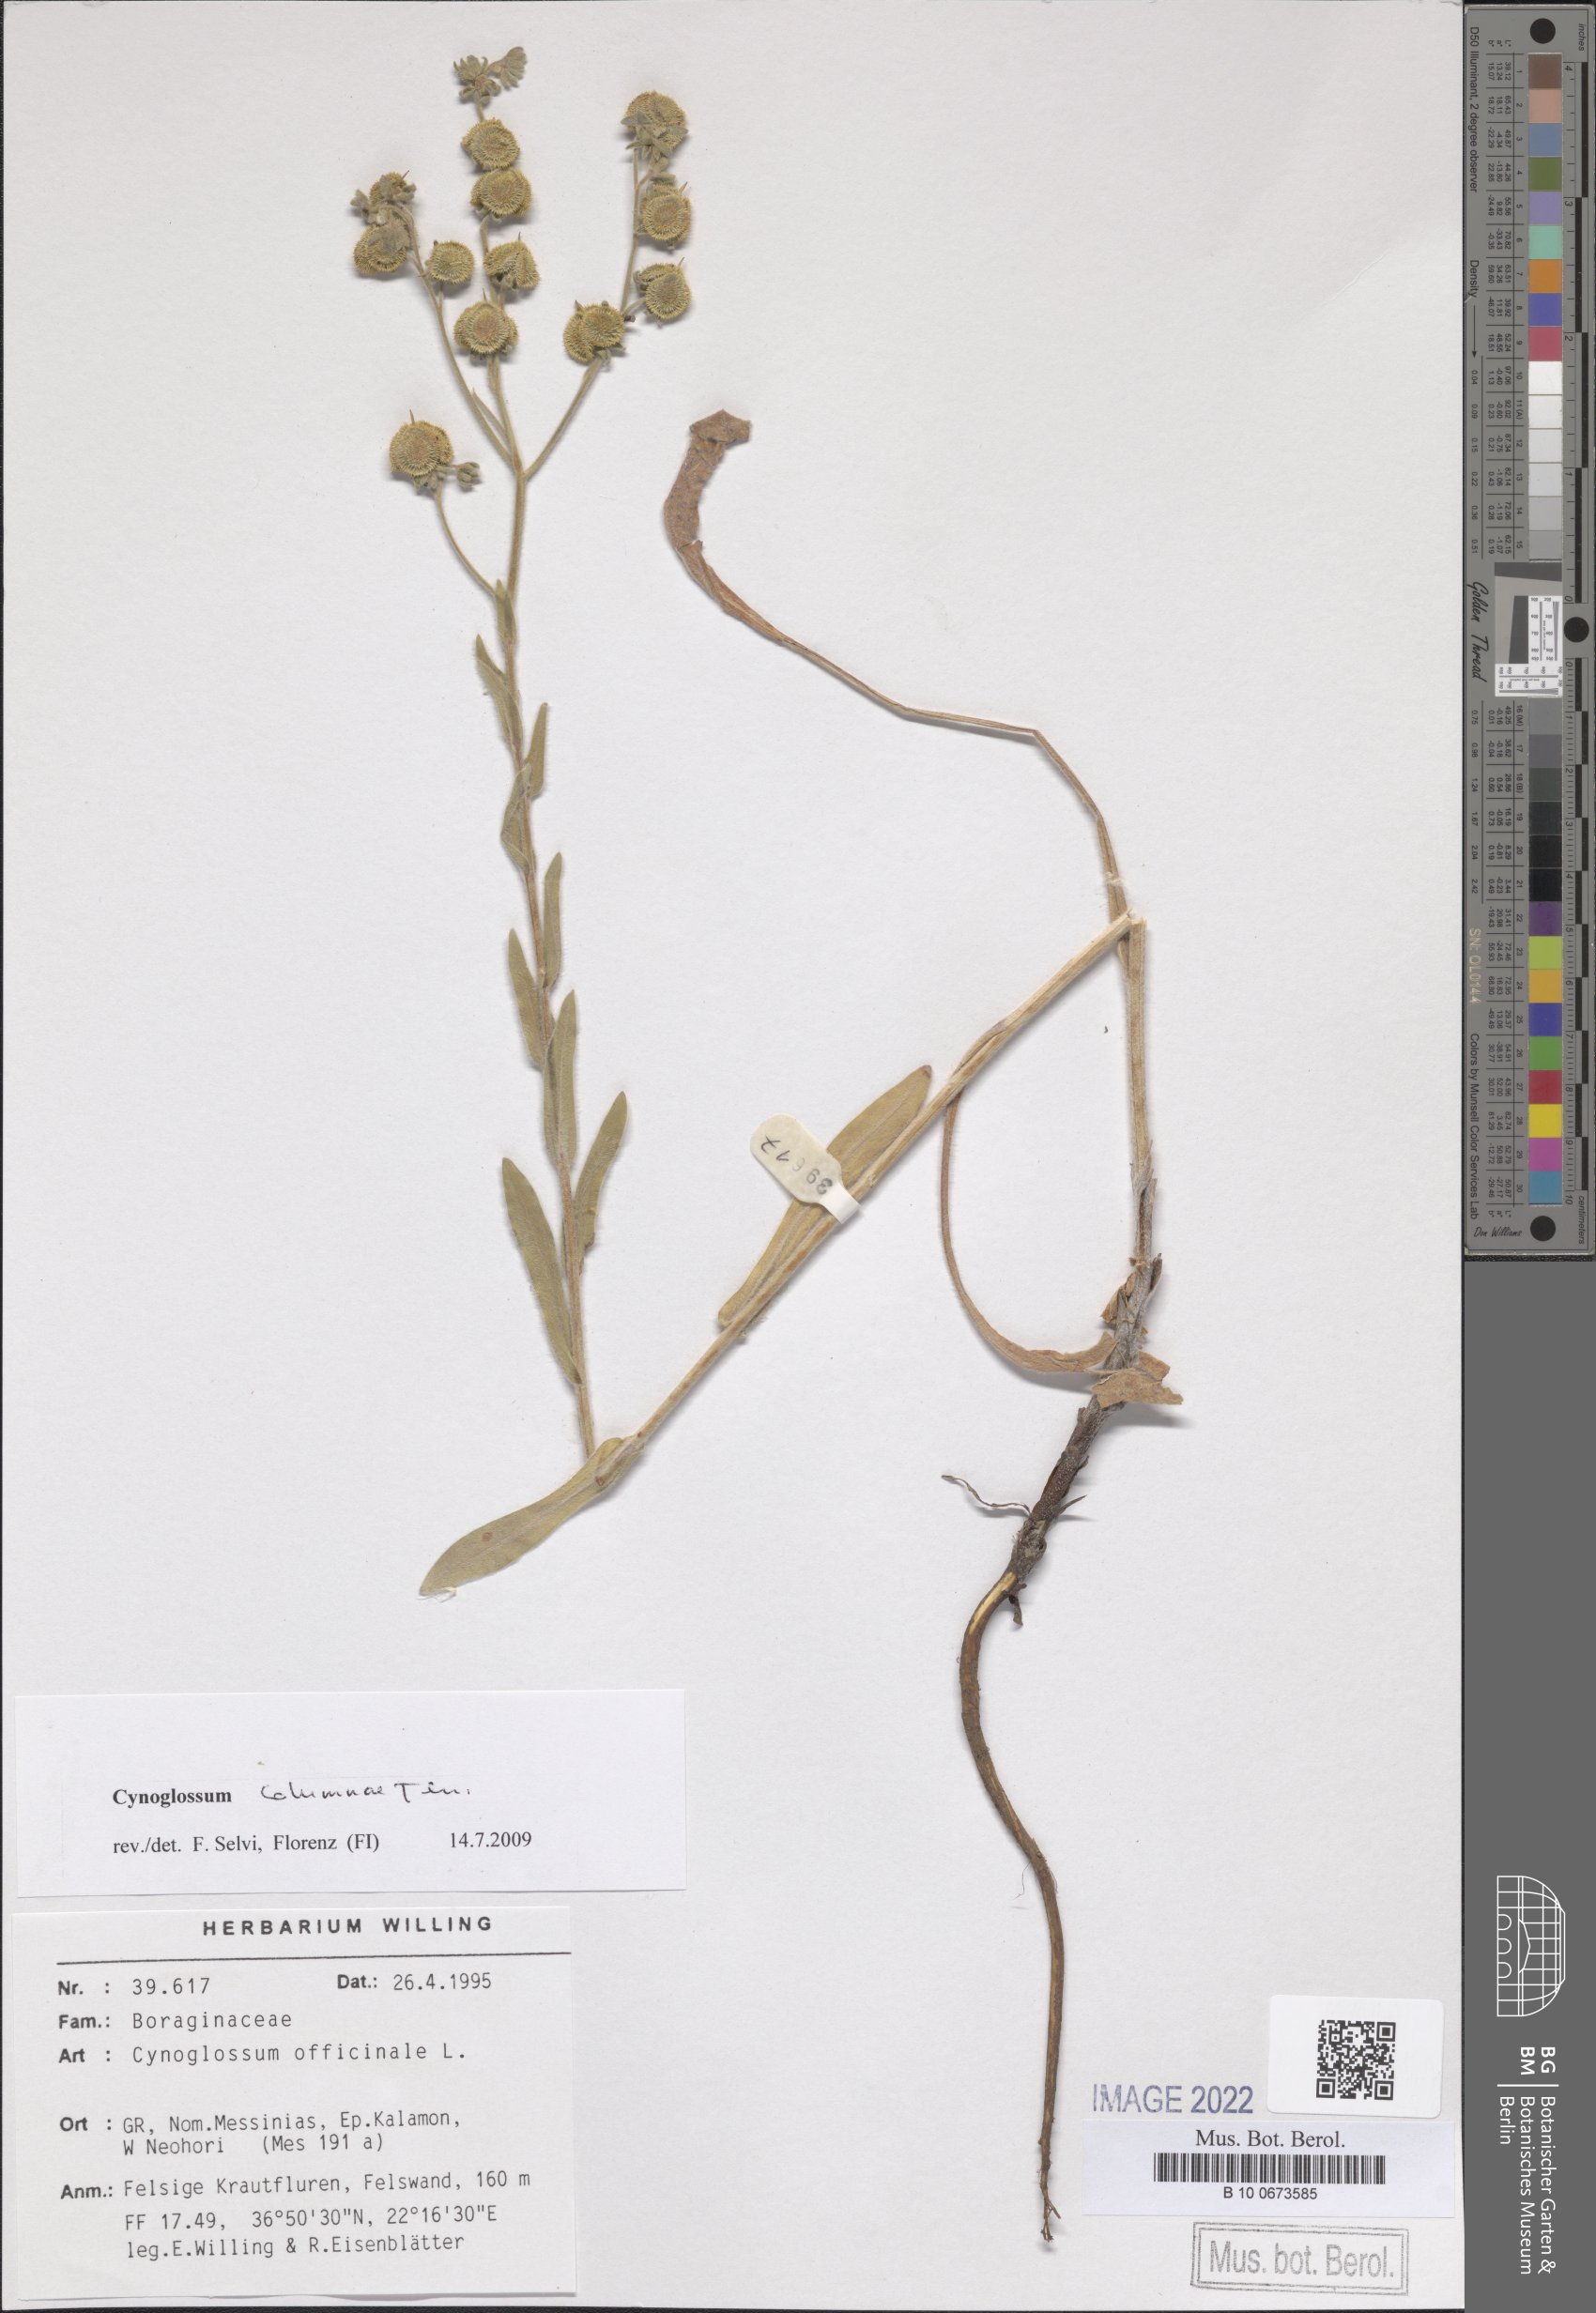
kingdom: Plantae
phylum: Tracheophyta
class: Magnoliopsida
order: Boraginales
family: Boraginaceae
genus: Rindera
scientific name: Rindera columnae
